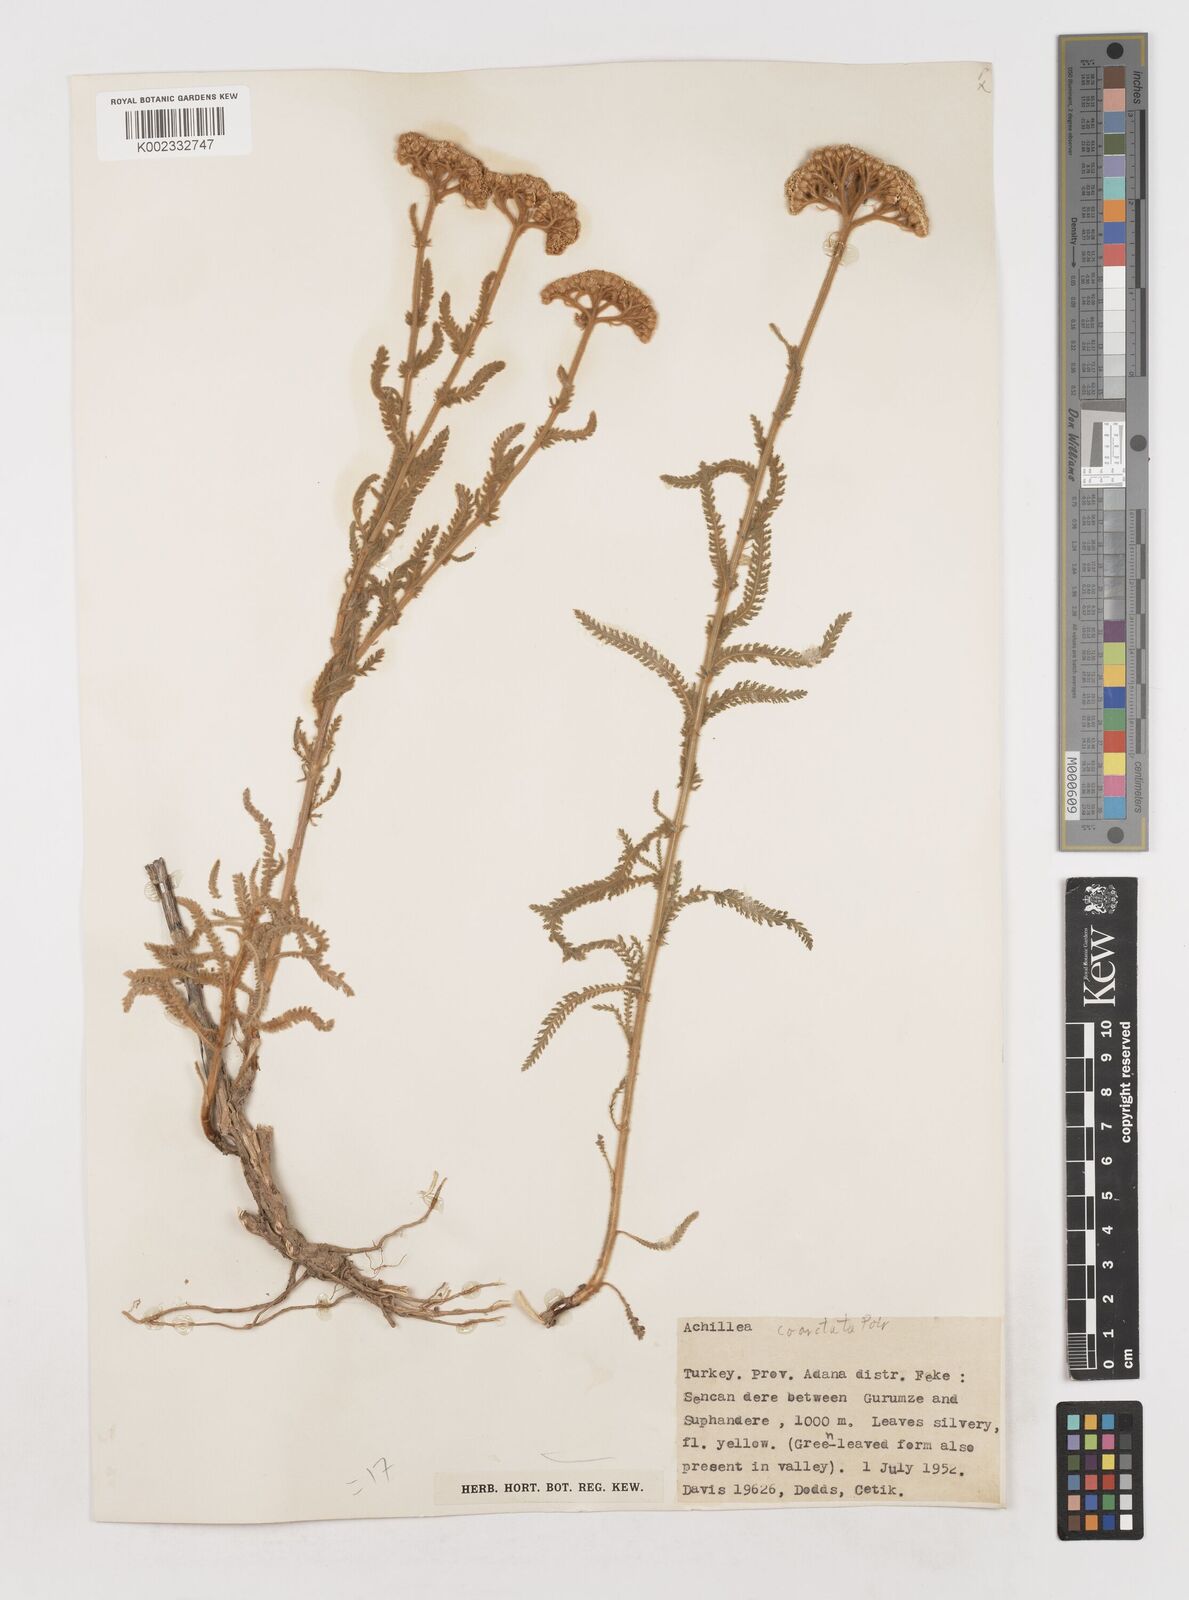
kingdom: Plantae
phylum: Tracheophyta
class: Magnoliopsida
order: Asterales
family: Asteraceae
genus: Achillea
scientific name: Achillea coarctata
